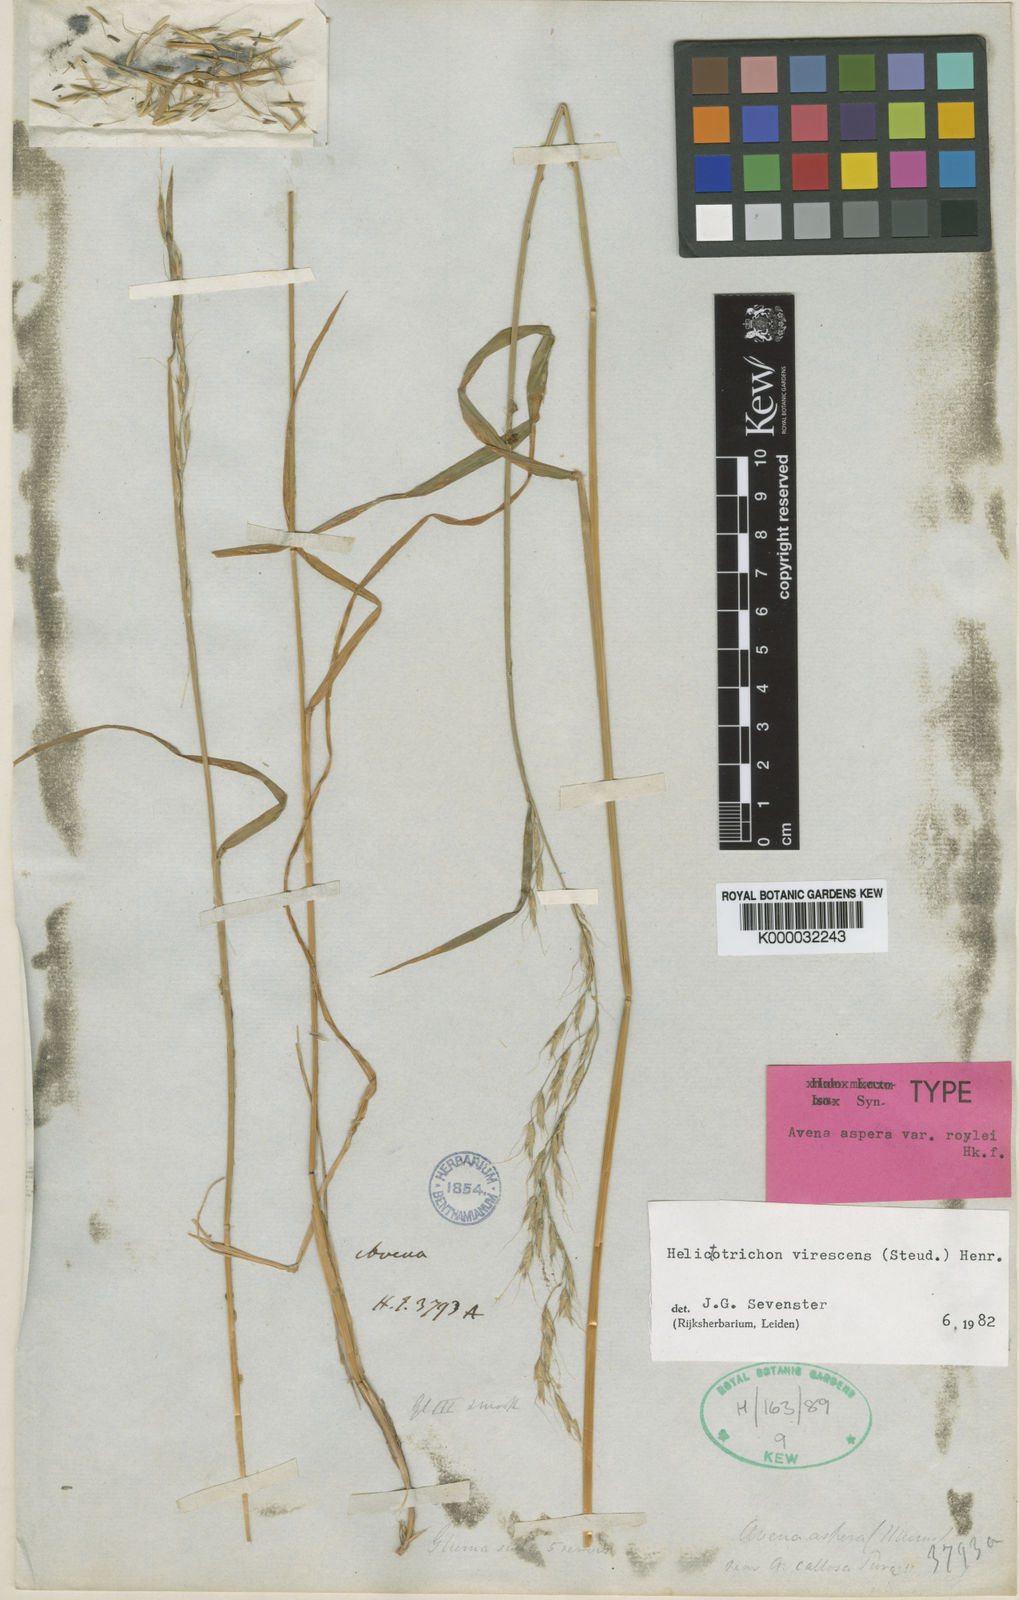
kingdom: Plantae
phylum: Tracheophyta
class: Liliopsida
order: Poales
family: Poaceae
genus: Trisetopsis
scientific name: Trisetopsis virescens
